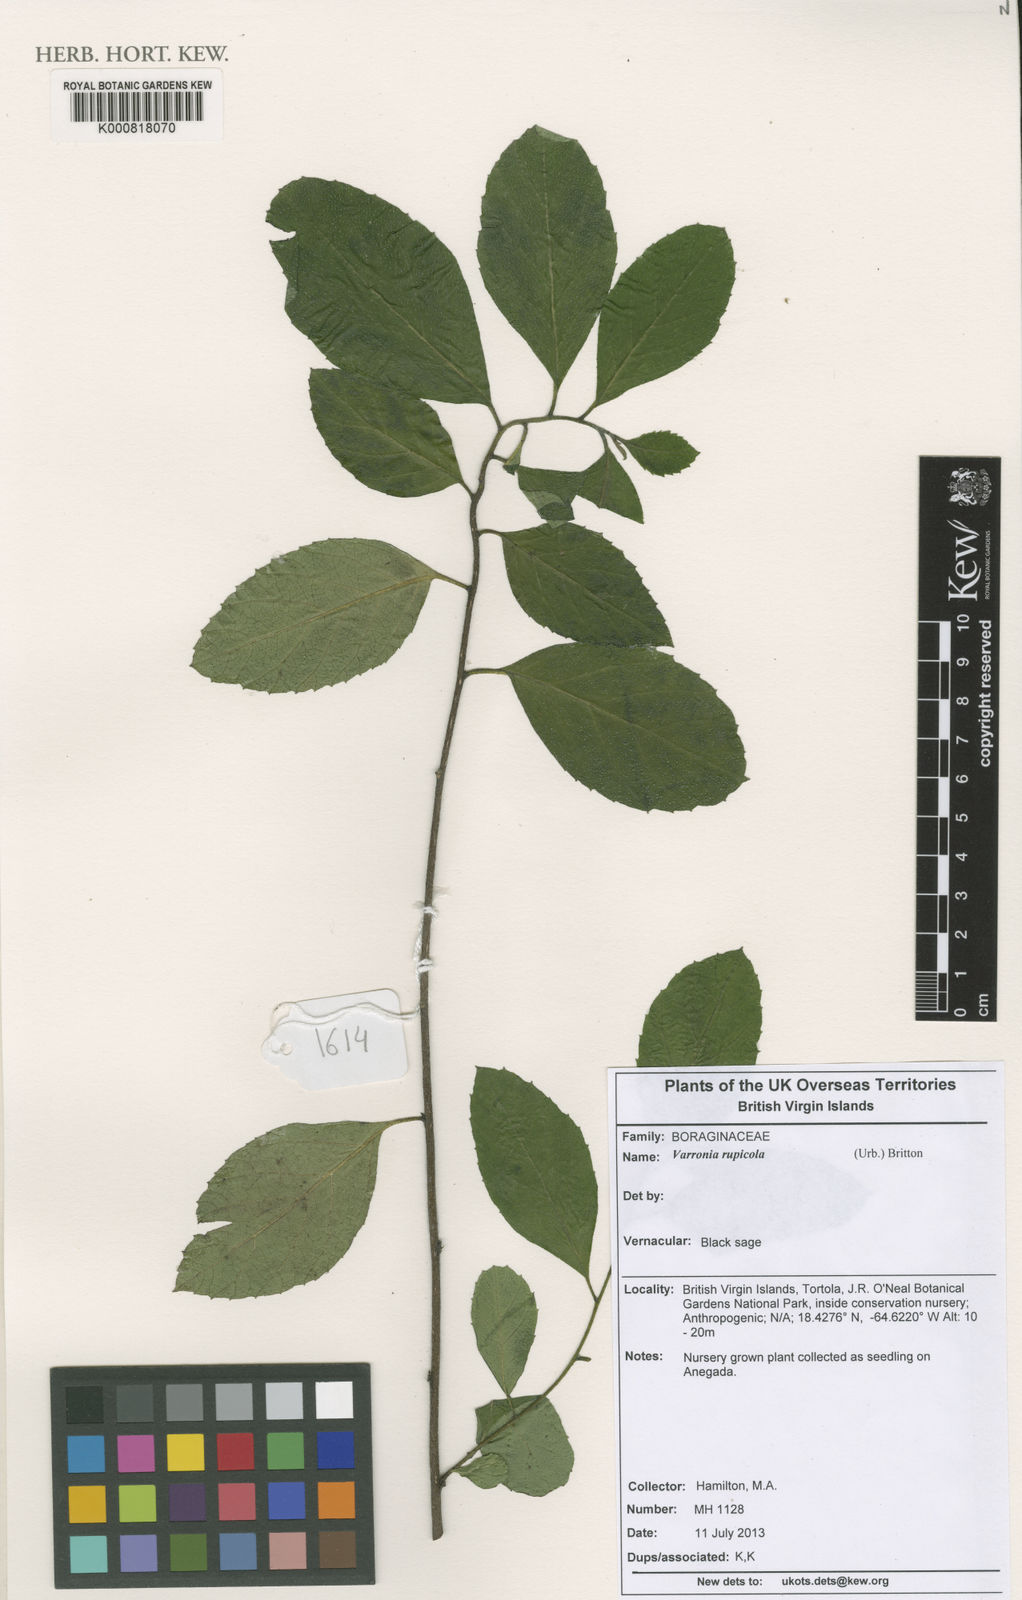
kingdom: Plantae
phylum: Tracheophyta
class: Magnoliopsida
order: Boraginales
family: Cordiaceae
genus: Varronia
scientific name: Varronia rupicola
